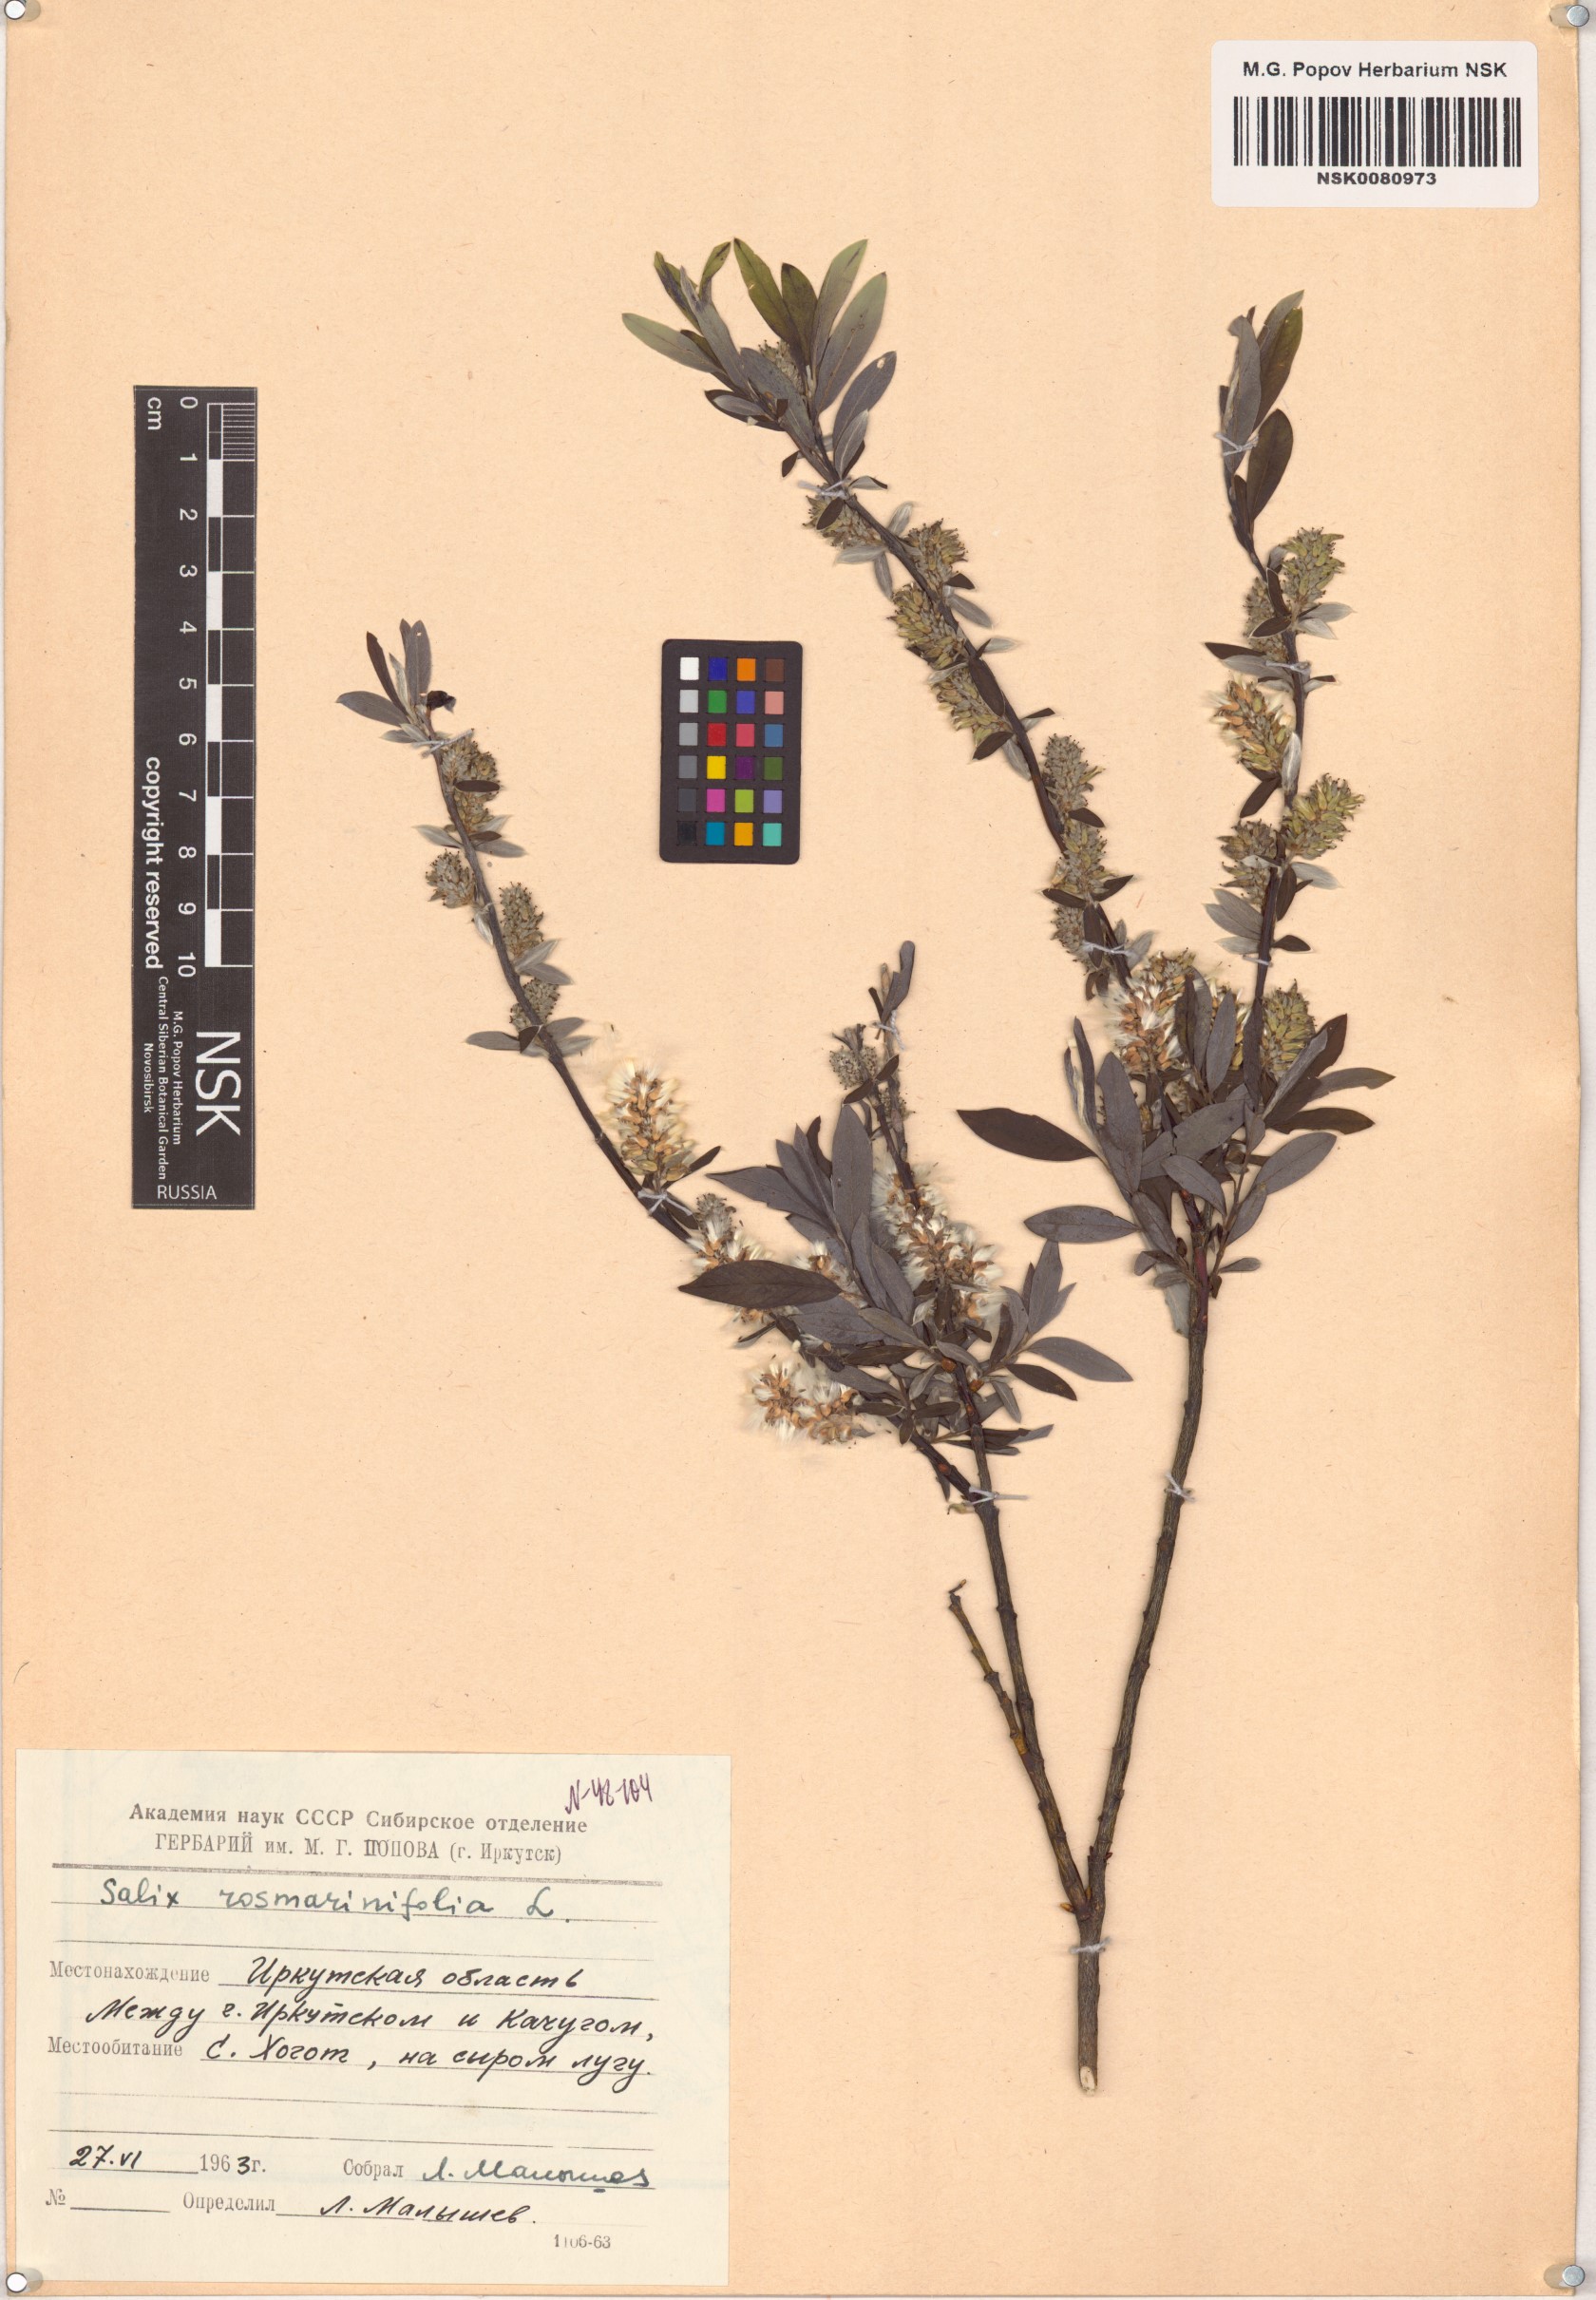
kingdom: Plantae
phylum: Tracheophyta
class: Magnoliopsida
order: Malpighiales
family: Salicaceae
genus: Salix
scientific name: Salix rosmarinifolia
